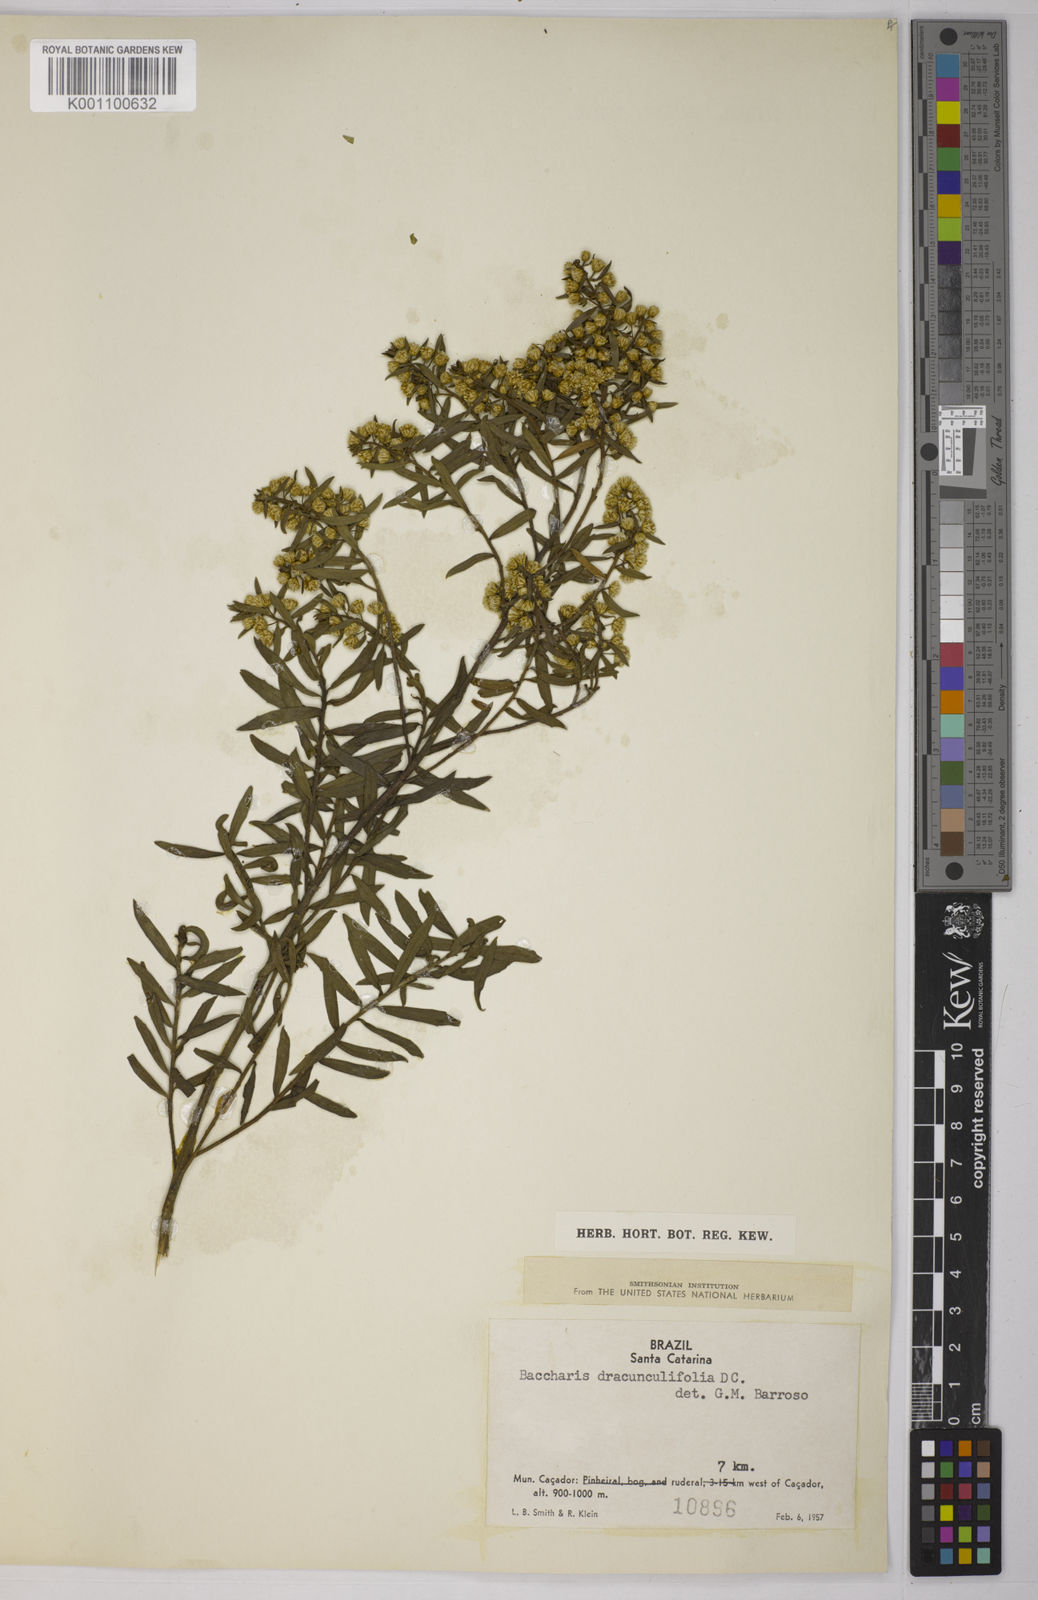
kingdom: Plantae
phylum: Tracheophyta
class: Magnoliopsida
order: Asterales
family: Asteraceae
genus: Baccharis
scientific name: Baccharis dracunculifolia
